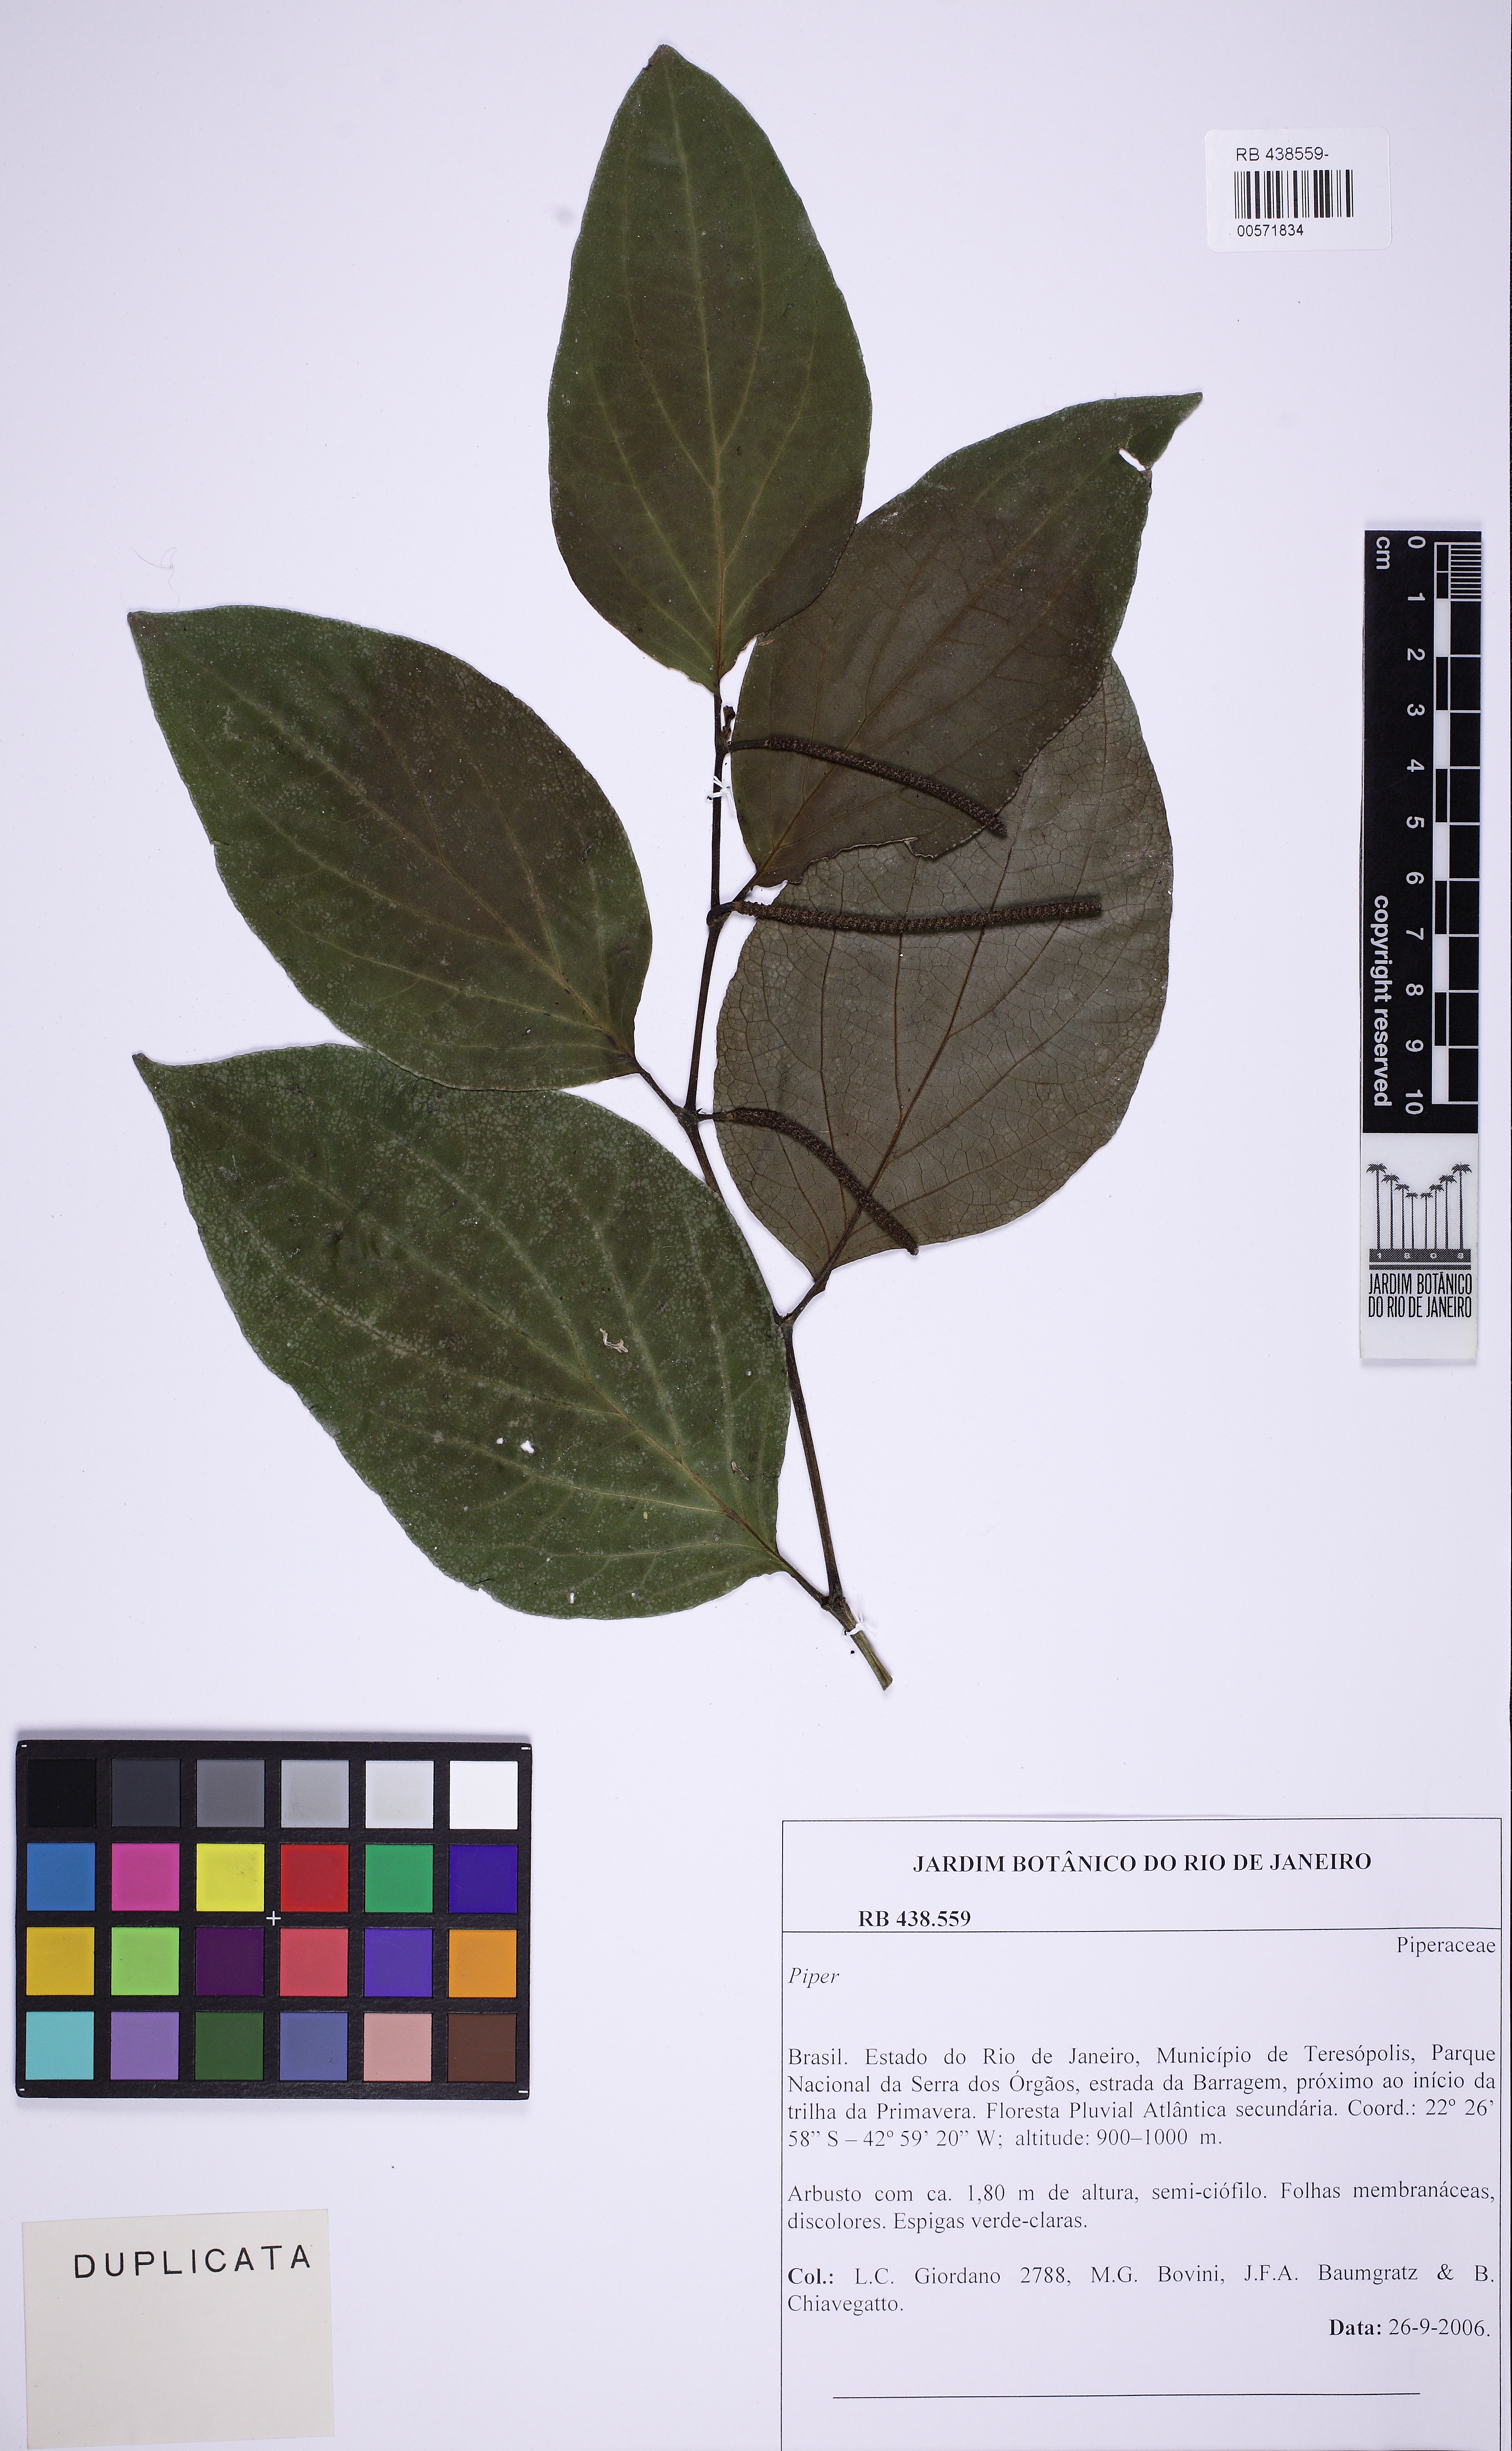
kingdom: Plantae
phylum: Tracheophyta
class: Magnoliopsida
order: Piperales
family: Piperaceae
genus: Piper
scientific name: Piper crassinervium
